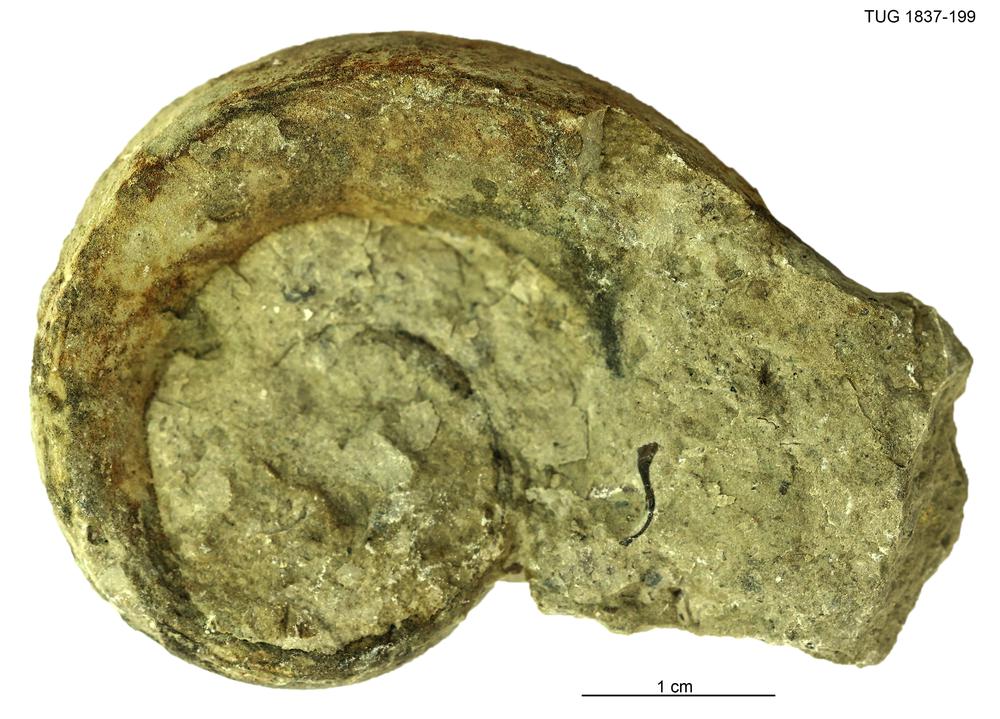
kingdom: Animalia
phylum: Mollusca
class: Gastropoda
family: Lesueurillidae
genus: Lesueurilla
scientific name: Lesueurilla
